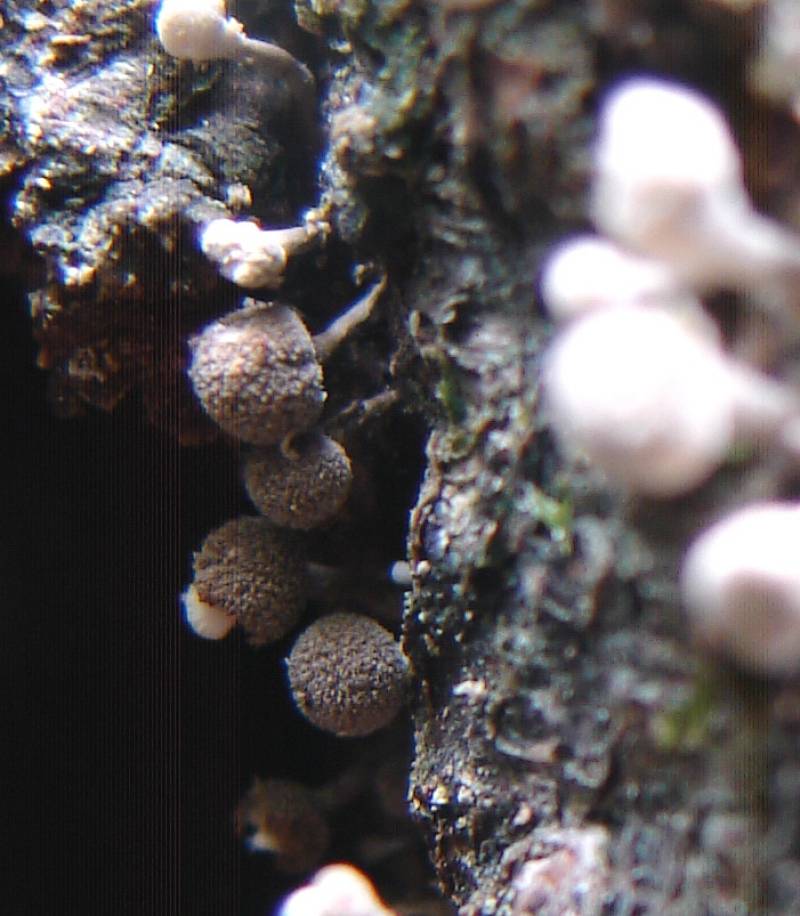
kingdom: Fungi
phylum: Basidiomycota
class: Atractiellomycetes
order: Atractiellales
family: Phleogenaceae
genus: Phleogena
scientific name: Phleogena faginea
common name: pudderkølle
